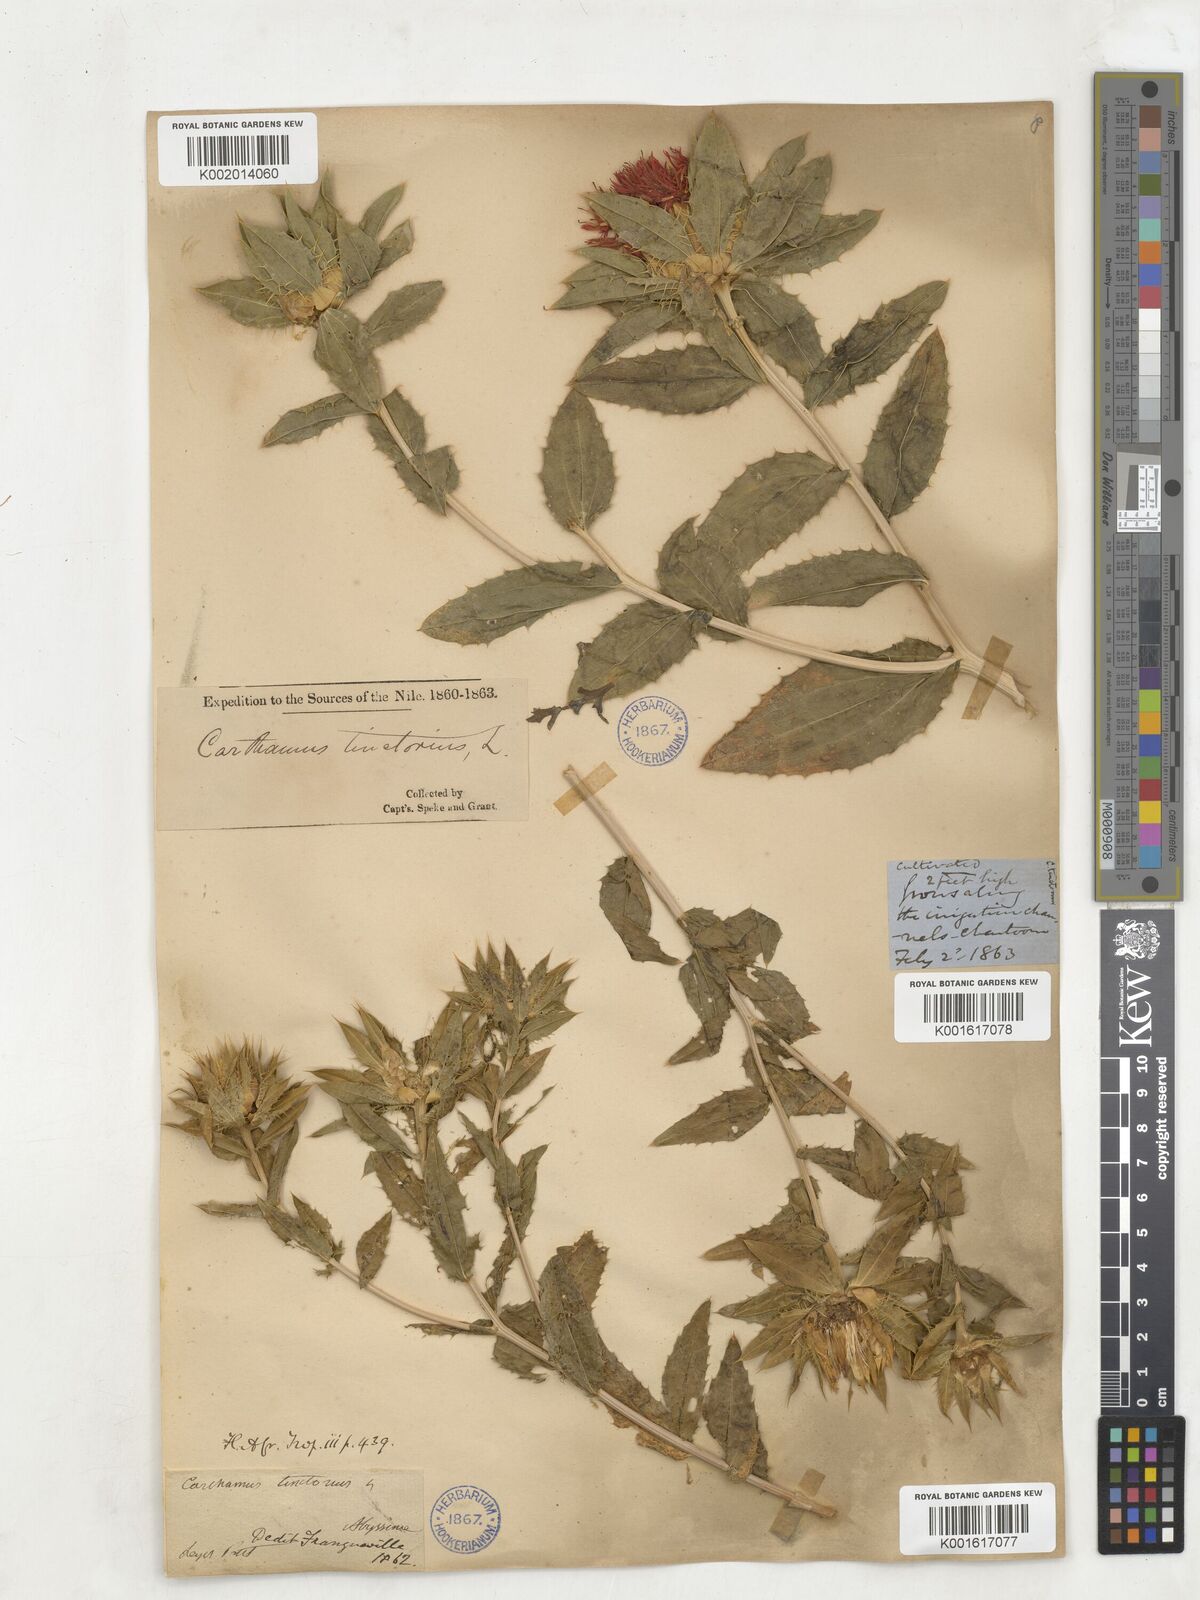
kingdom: Plantae
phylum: Tracheophyta
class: Magnoliopsida
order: Asterales
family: Asteraceae
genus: Jurinea
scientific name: Jurinea cyanoides
